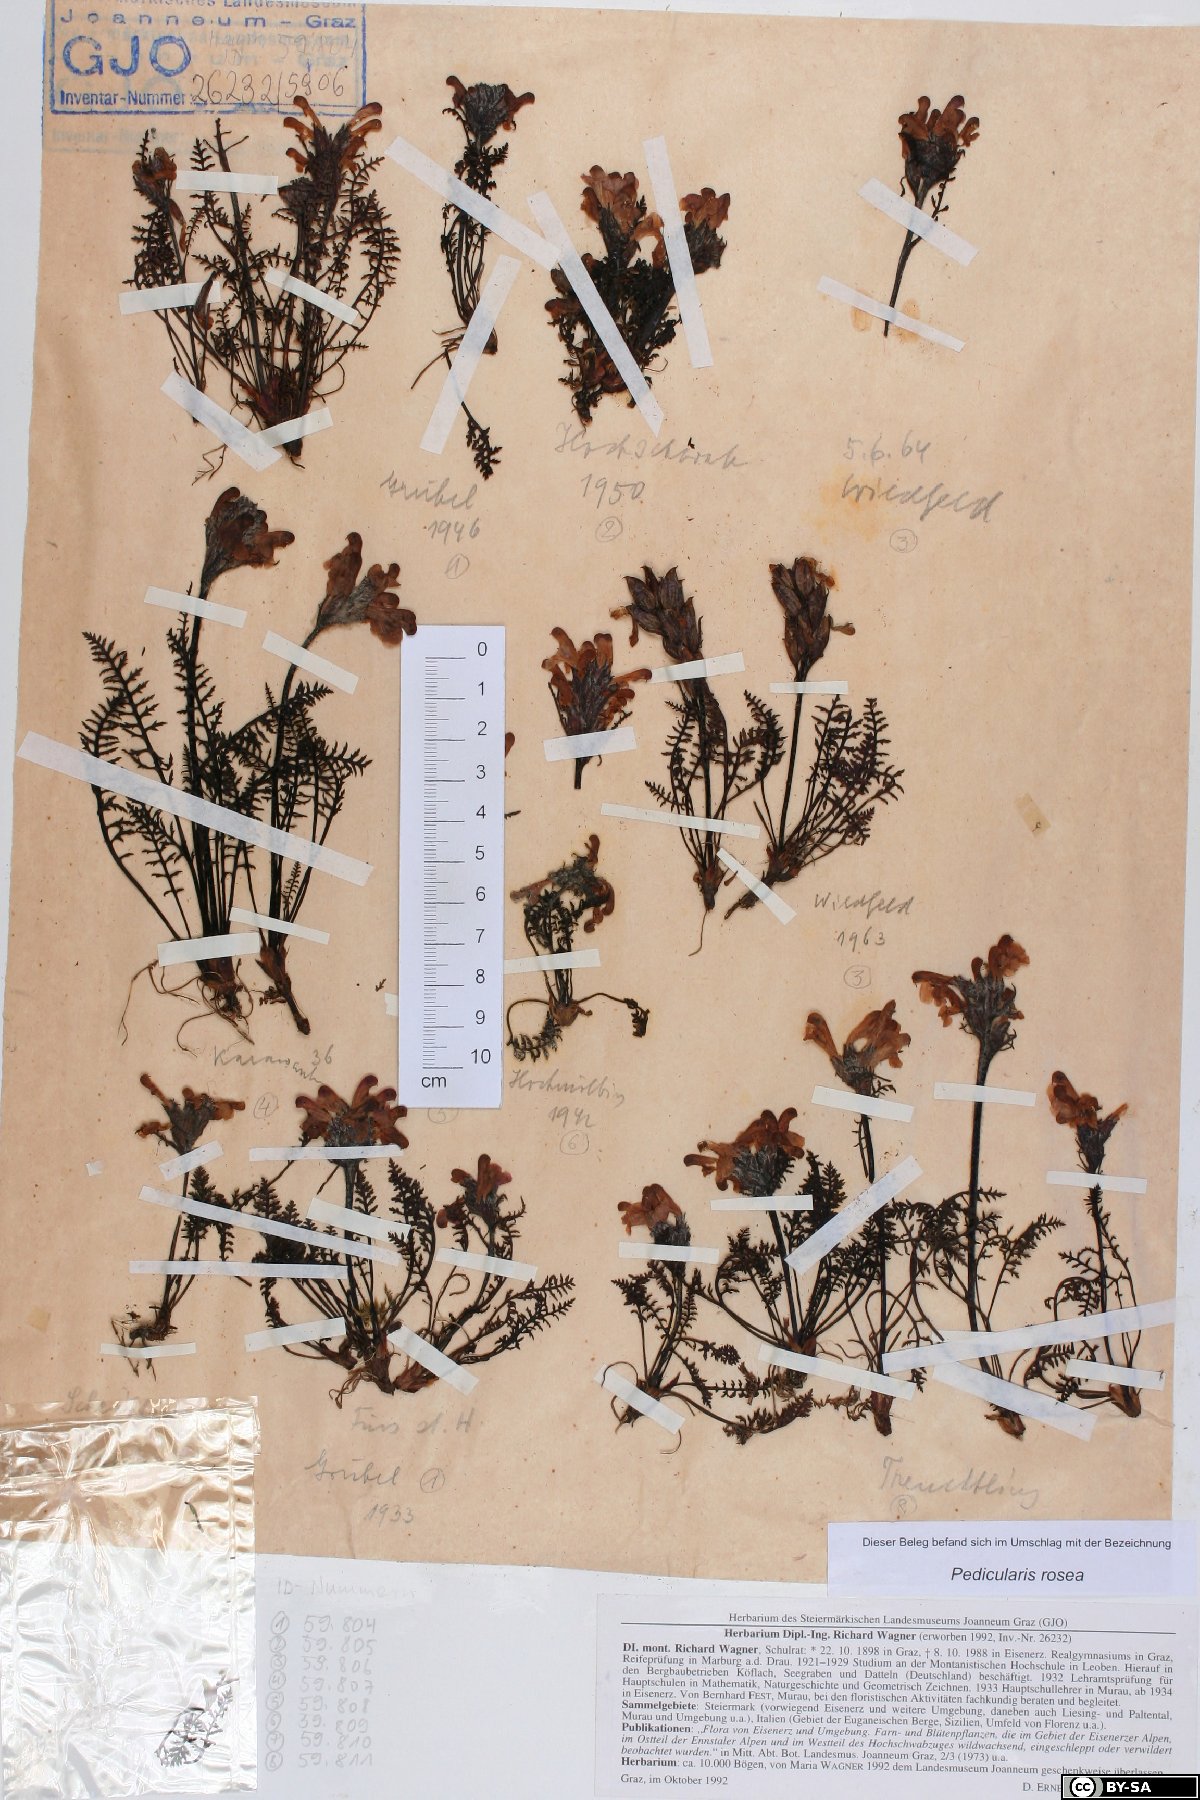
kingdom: Plantae
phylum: Tracheophyta
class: Magnoliopsida
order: Lamiales
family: Orobanchaceae
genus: Pedicularis
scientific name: Pedicularis rosea
